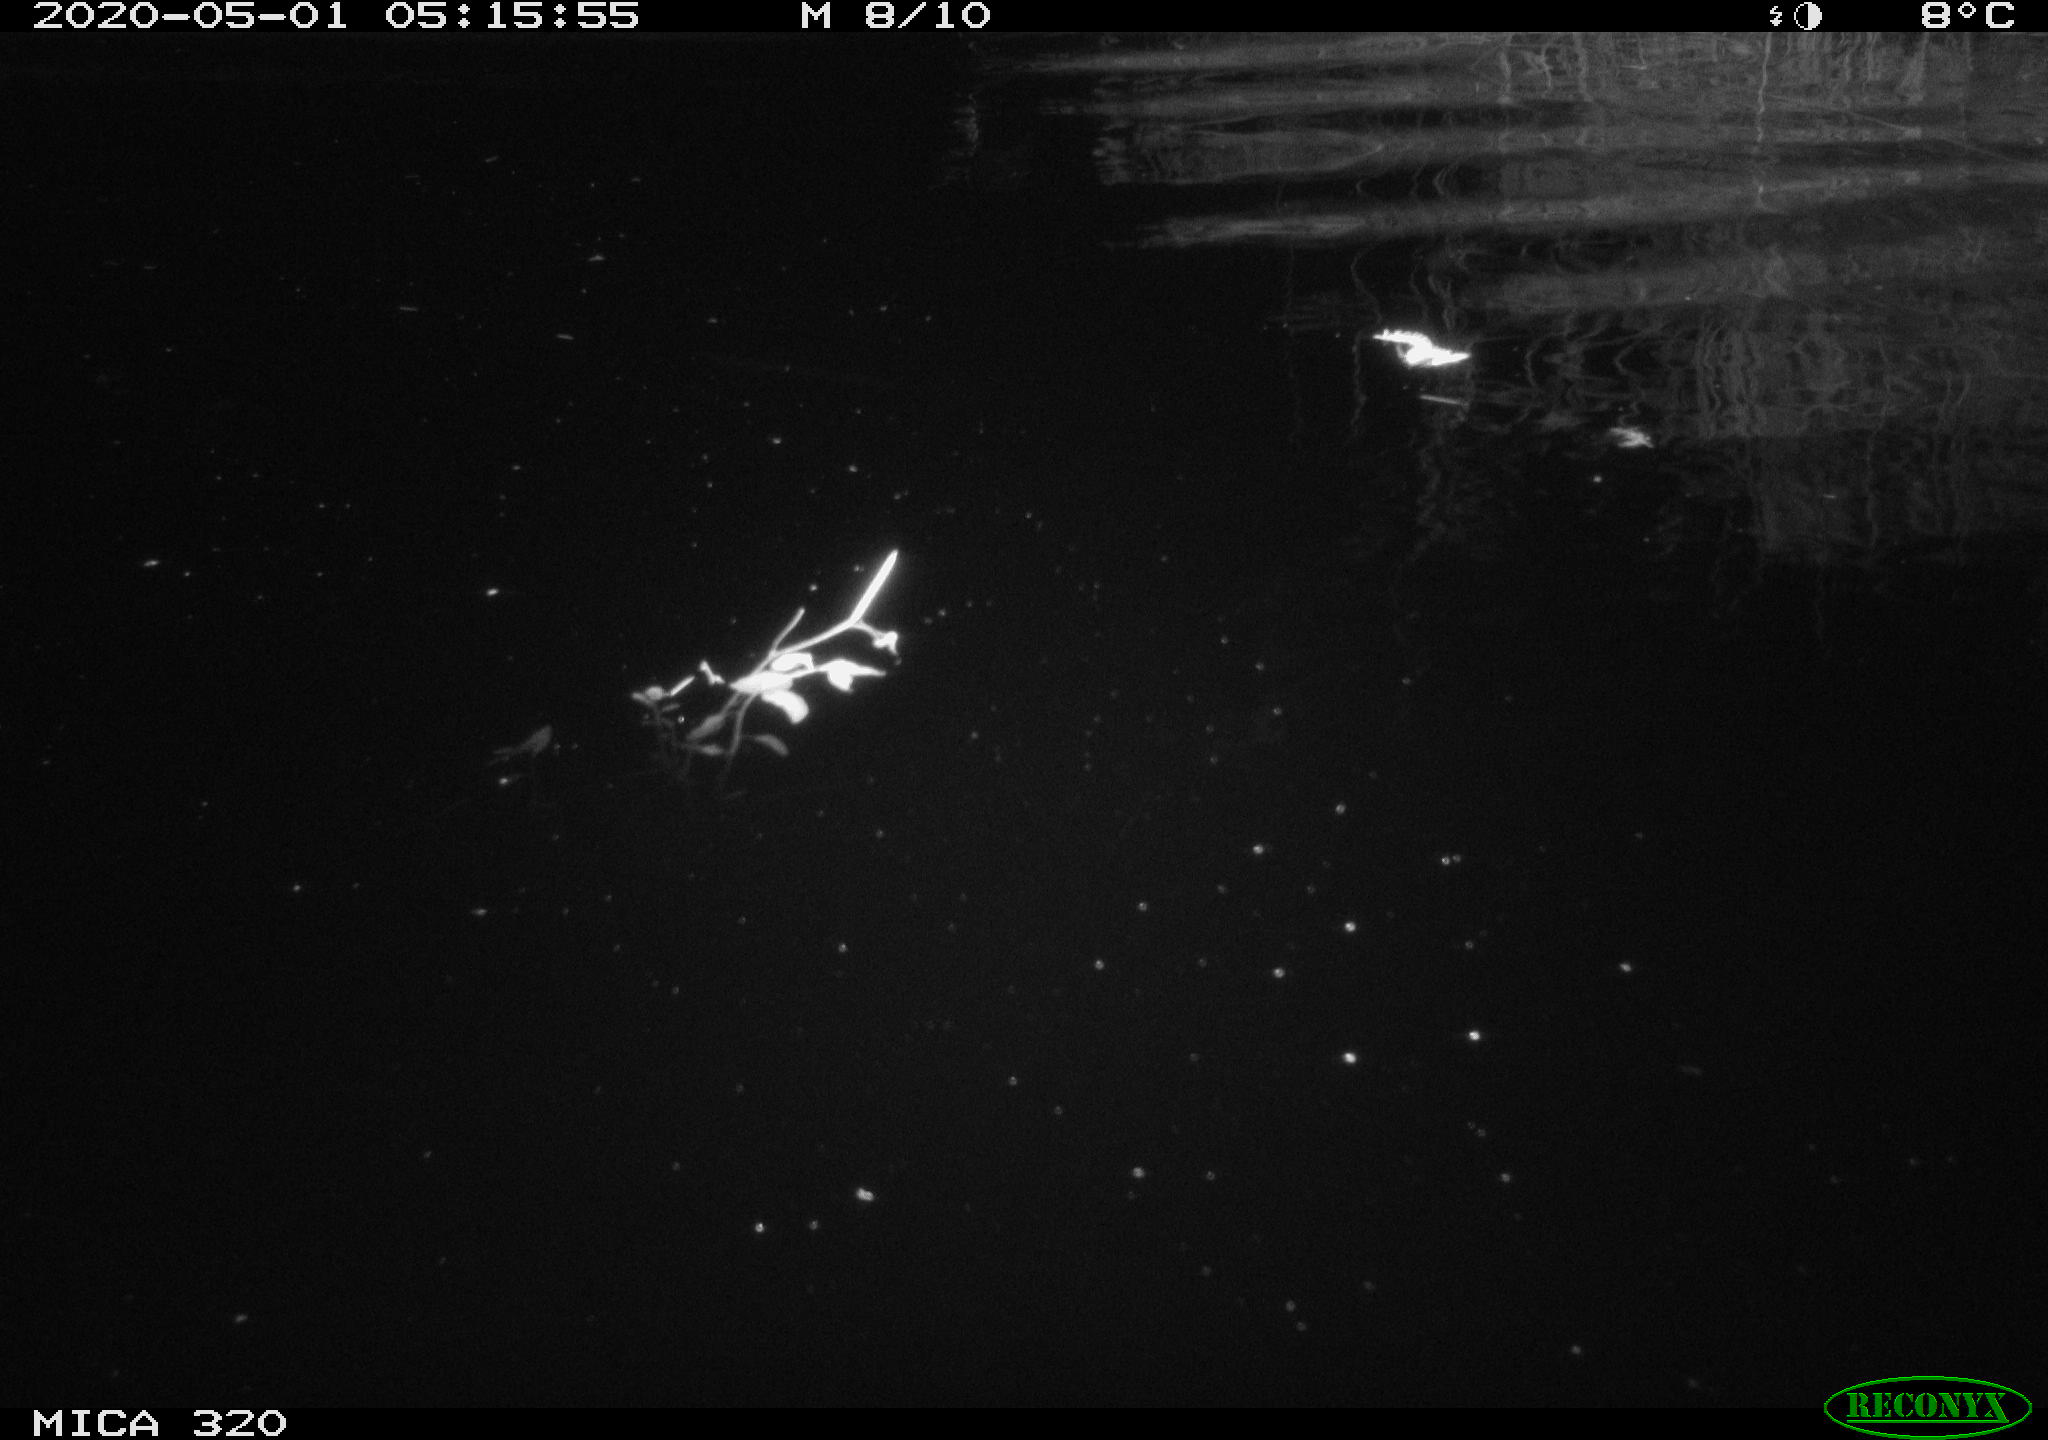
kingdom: Animalia
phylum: Chordata
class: Aves
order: Anseriformes
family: Anatidae
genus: Anas
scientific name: Anas platyrhynchos
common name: Mallard
